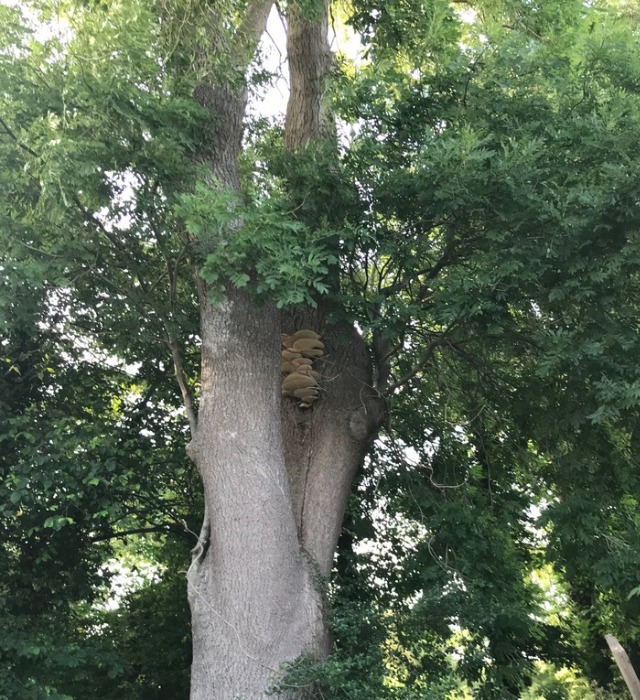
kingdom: Plantae
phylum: Tracheophyta
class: Magnoliopsida
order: Lamiales
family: Oleaceae
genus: Fraxinus
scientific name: Fraxinus excelsior
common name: Ask
